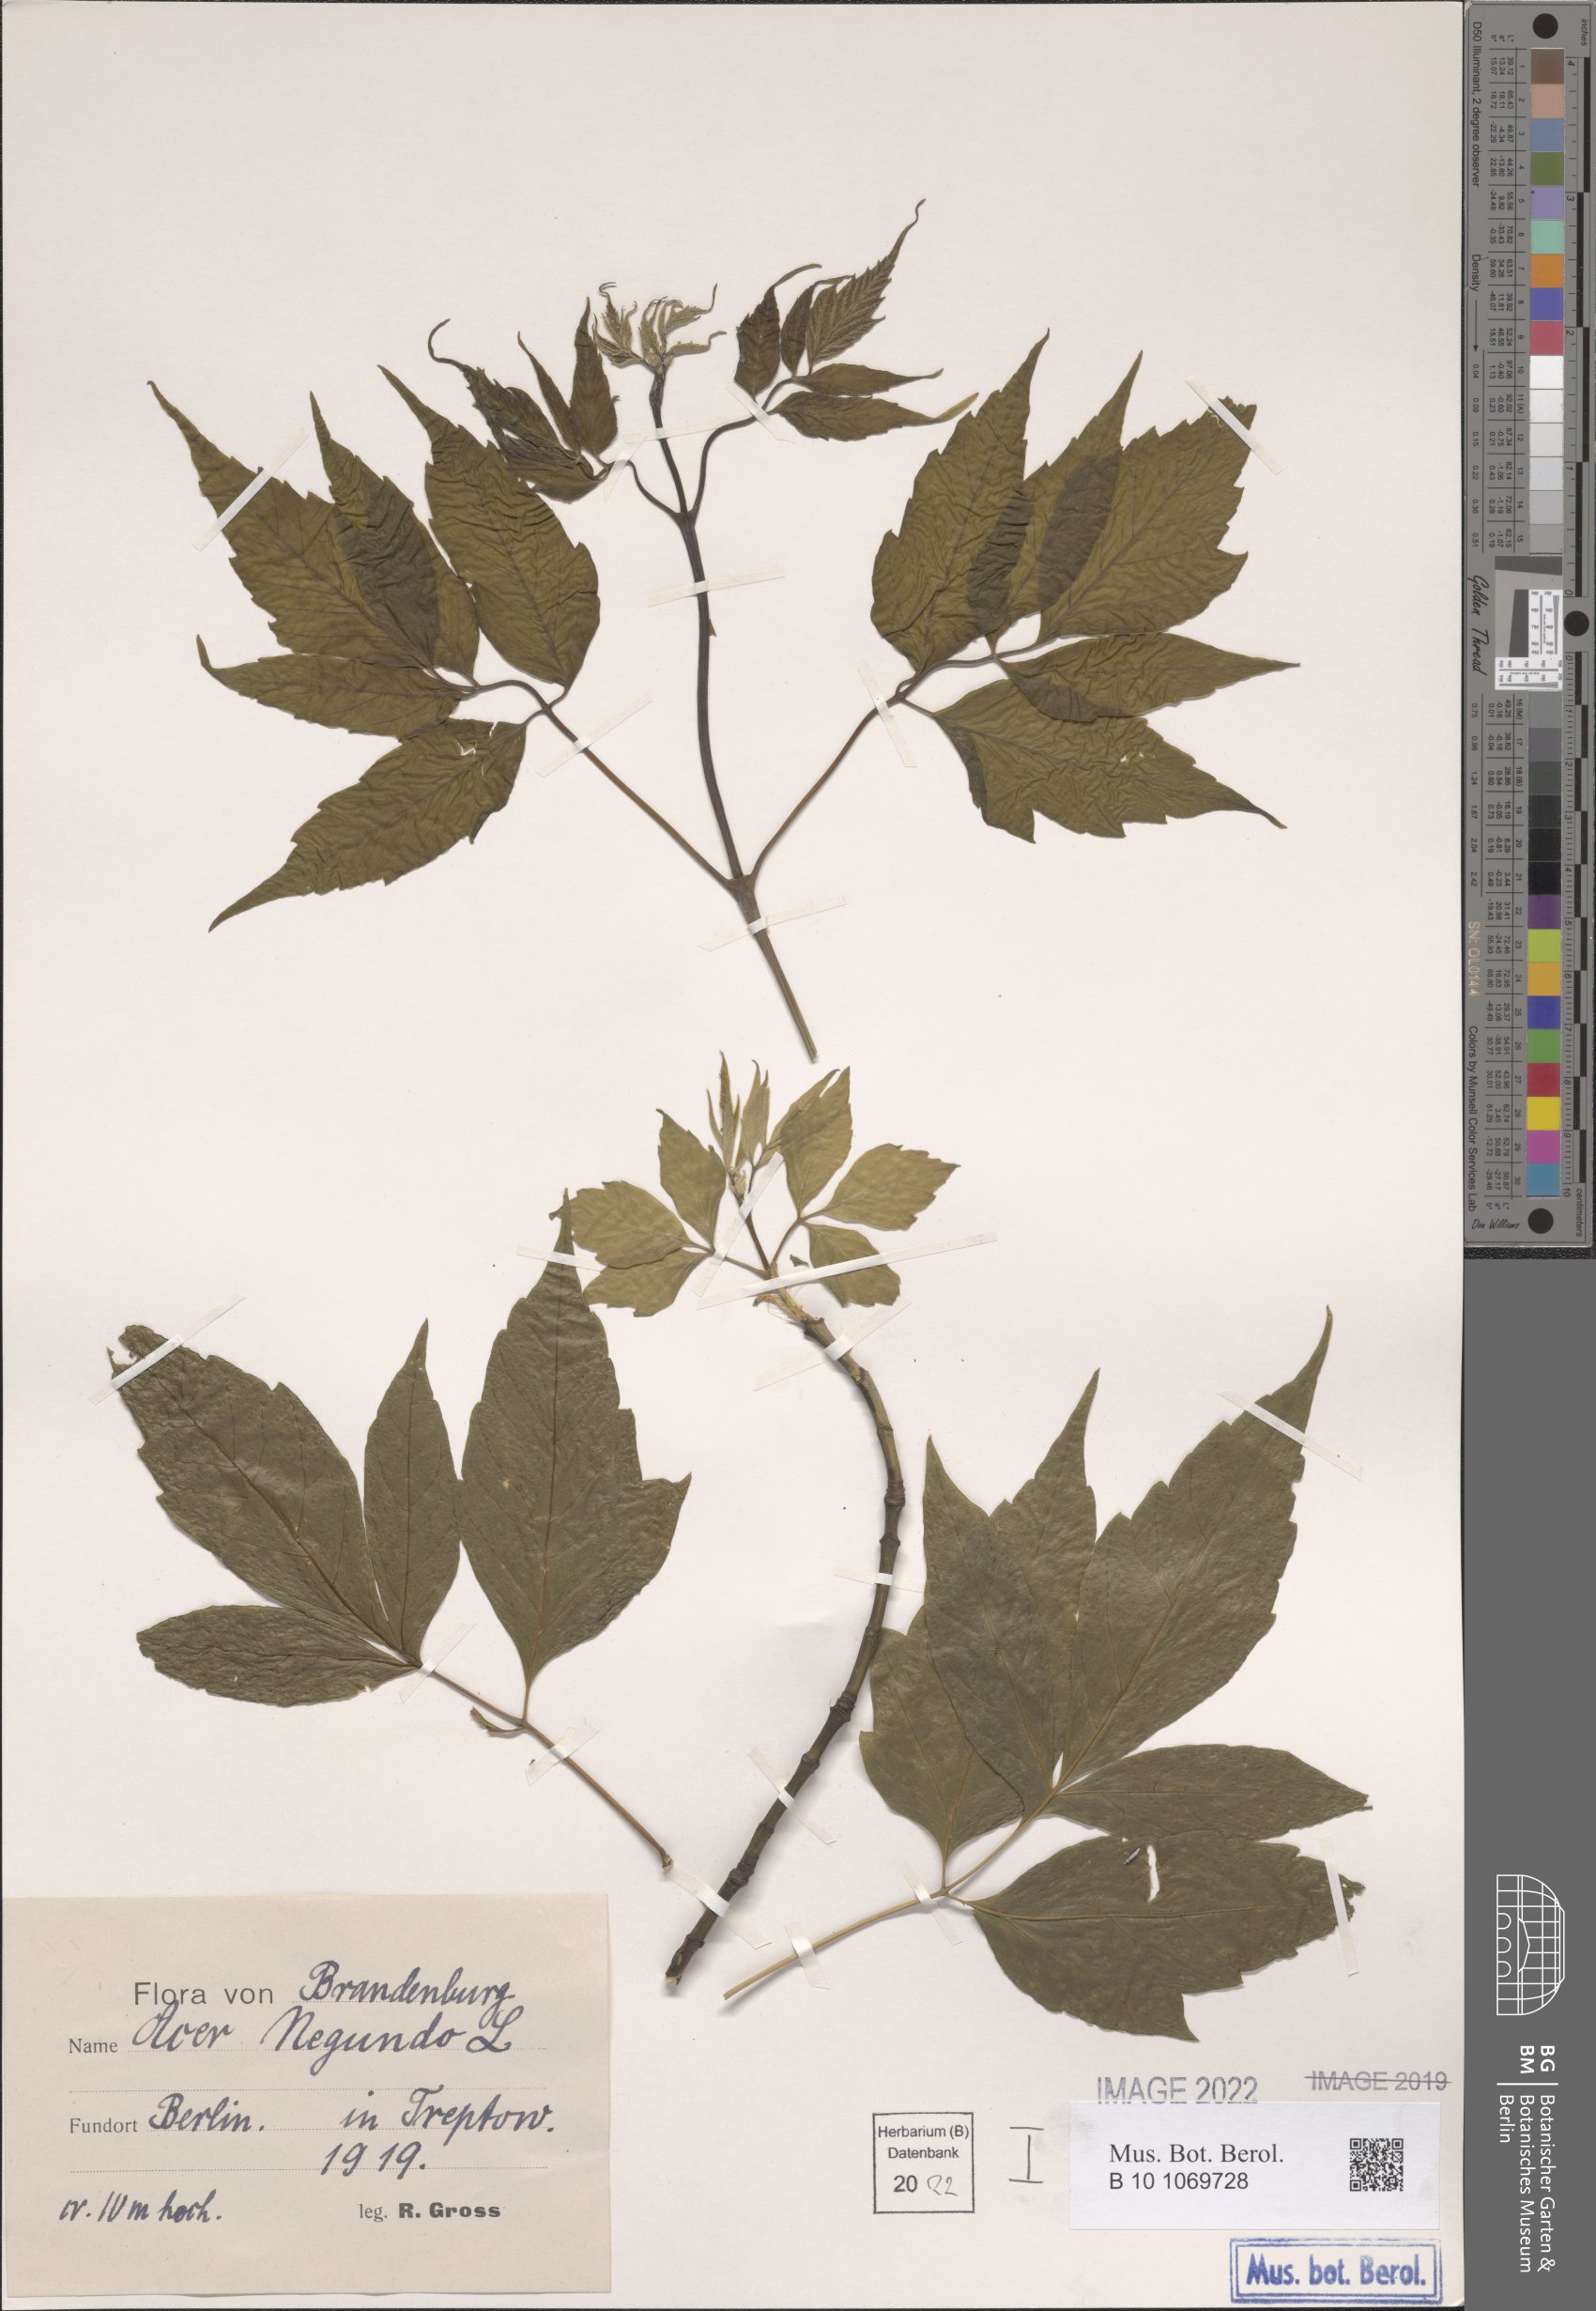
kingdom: Plantae
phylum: Tracheophyta
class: Magnoliopsida
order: Sapindales
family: Sapindaceae
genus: Acer
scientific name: Acer negundo
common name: Ashleaf maple
